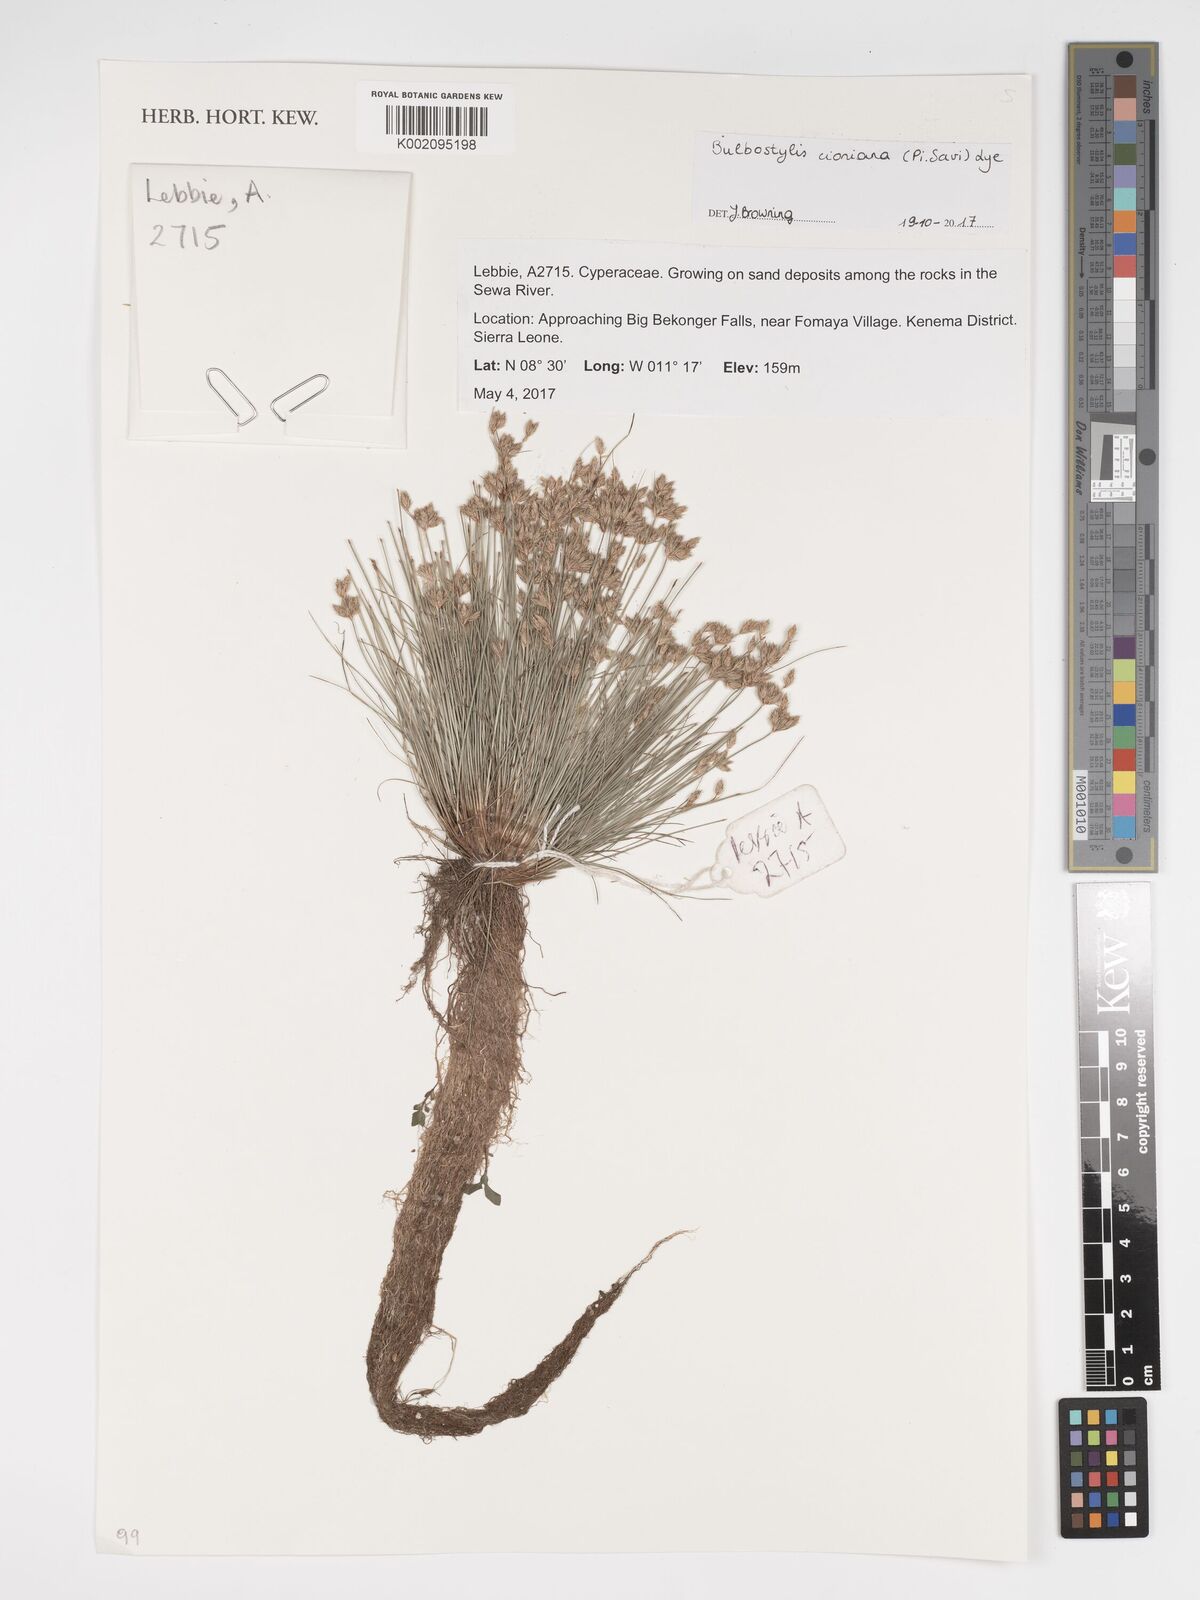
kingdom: Plantae
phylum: Tracheophyta
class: Liliopsida
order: Poales
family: Cyperaceae
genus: Bulbostylis
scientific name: Bulbostylis cioniana
